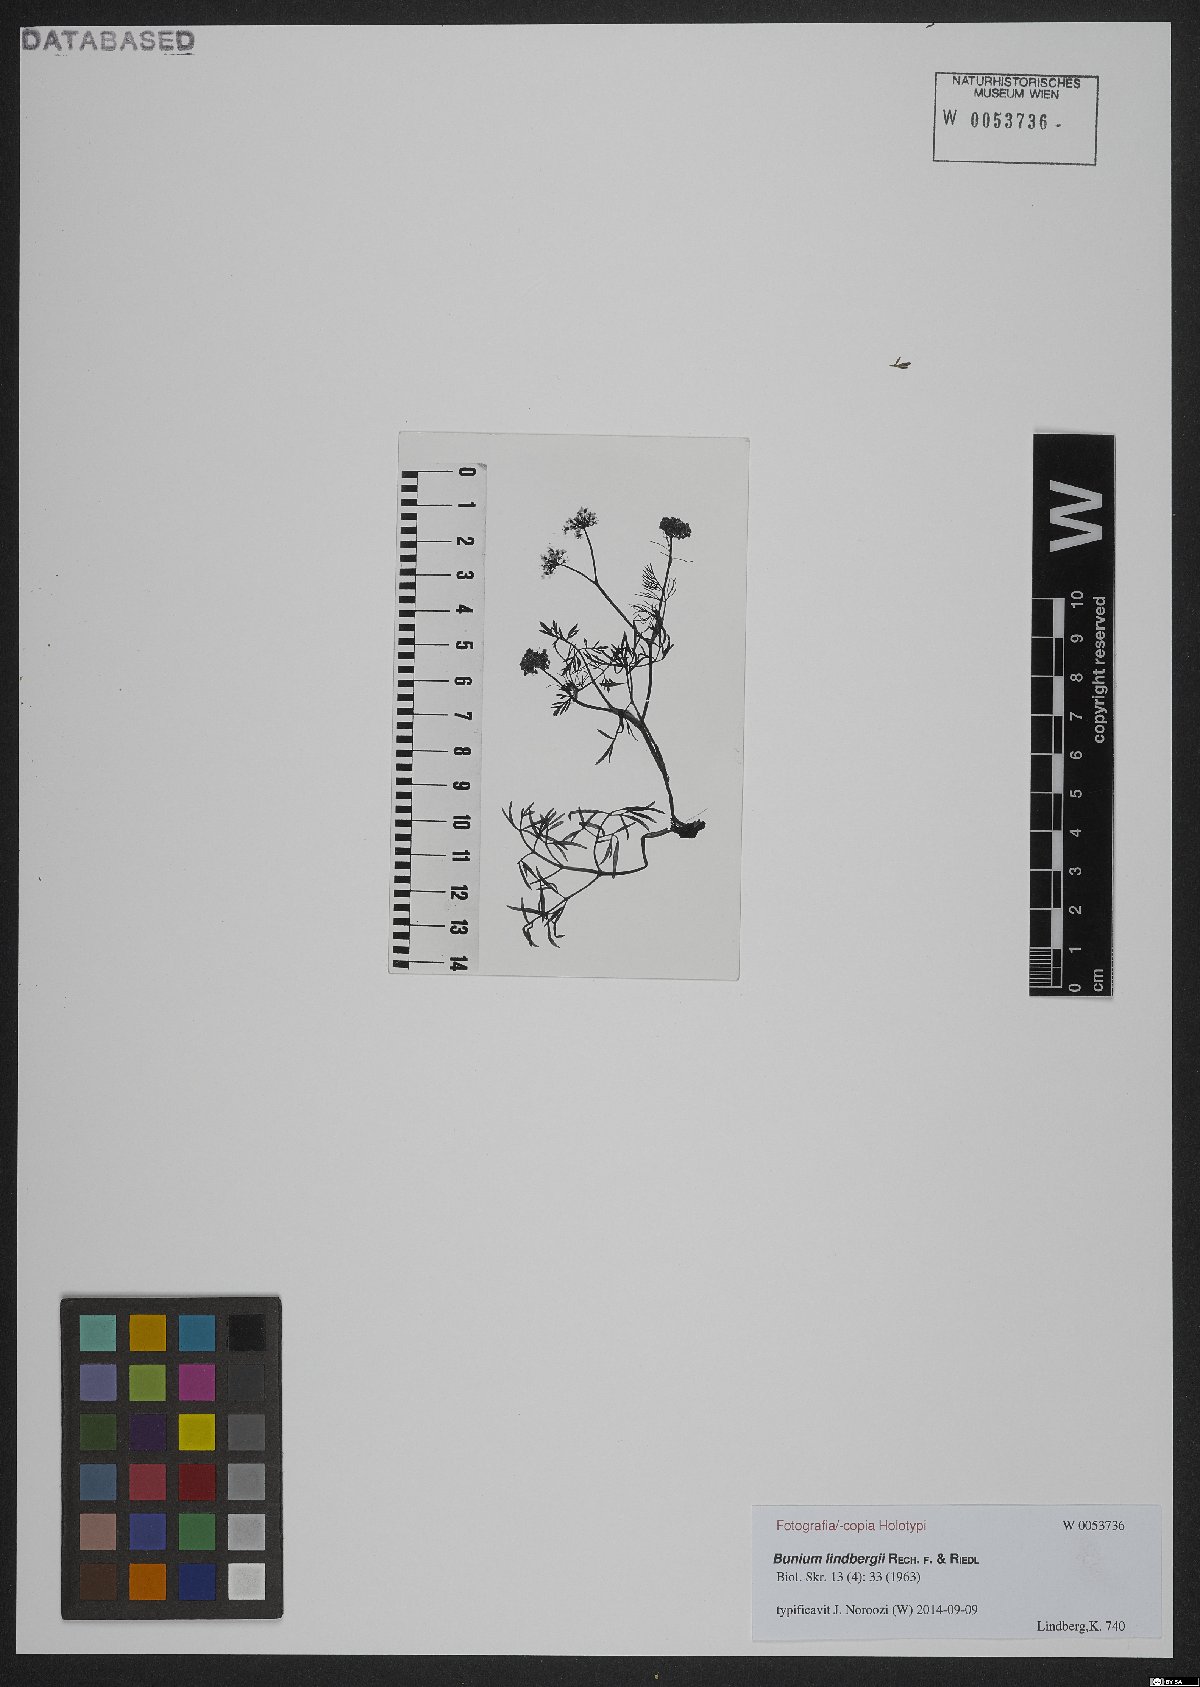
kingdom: Plantae
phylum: Tracheophyta
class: Magnoliopsida
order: Apiales
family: Apiaceae
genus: Elwendia
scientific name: Elwendia lindbergii
